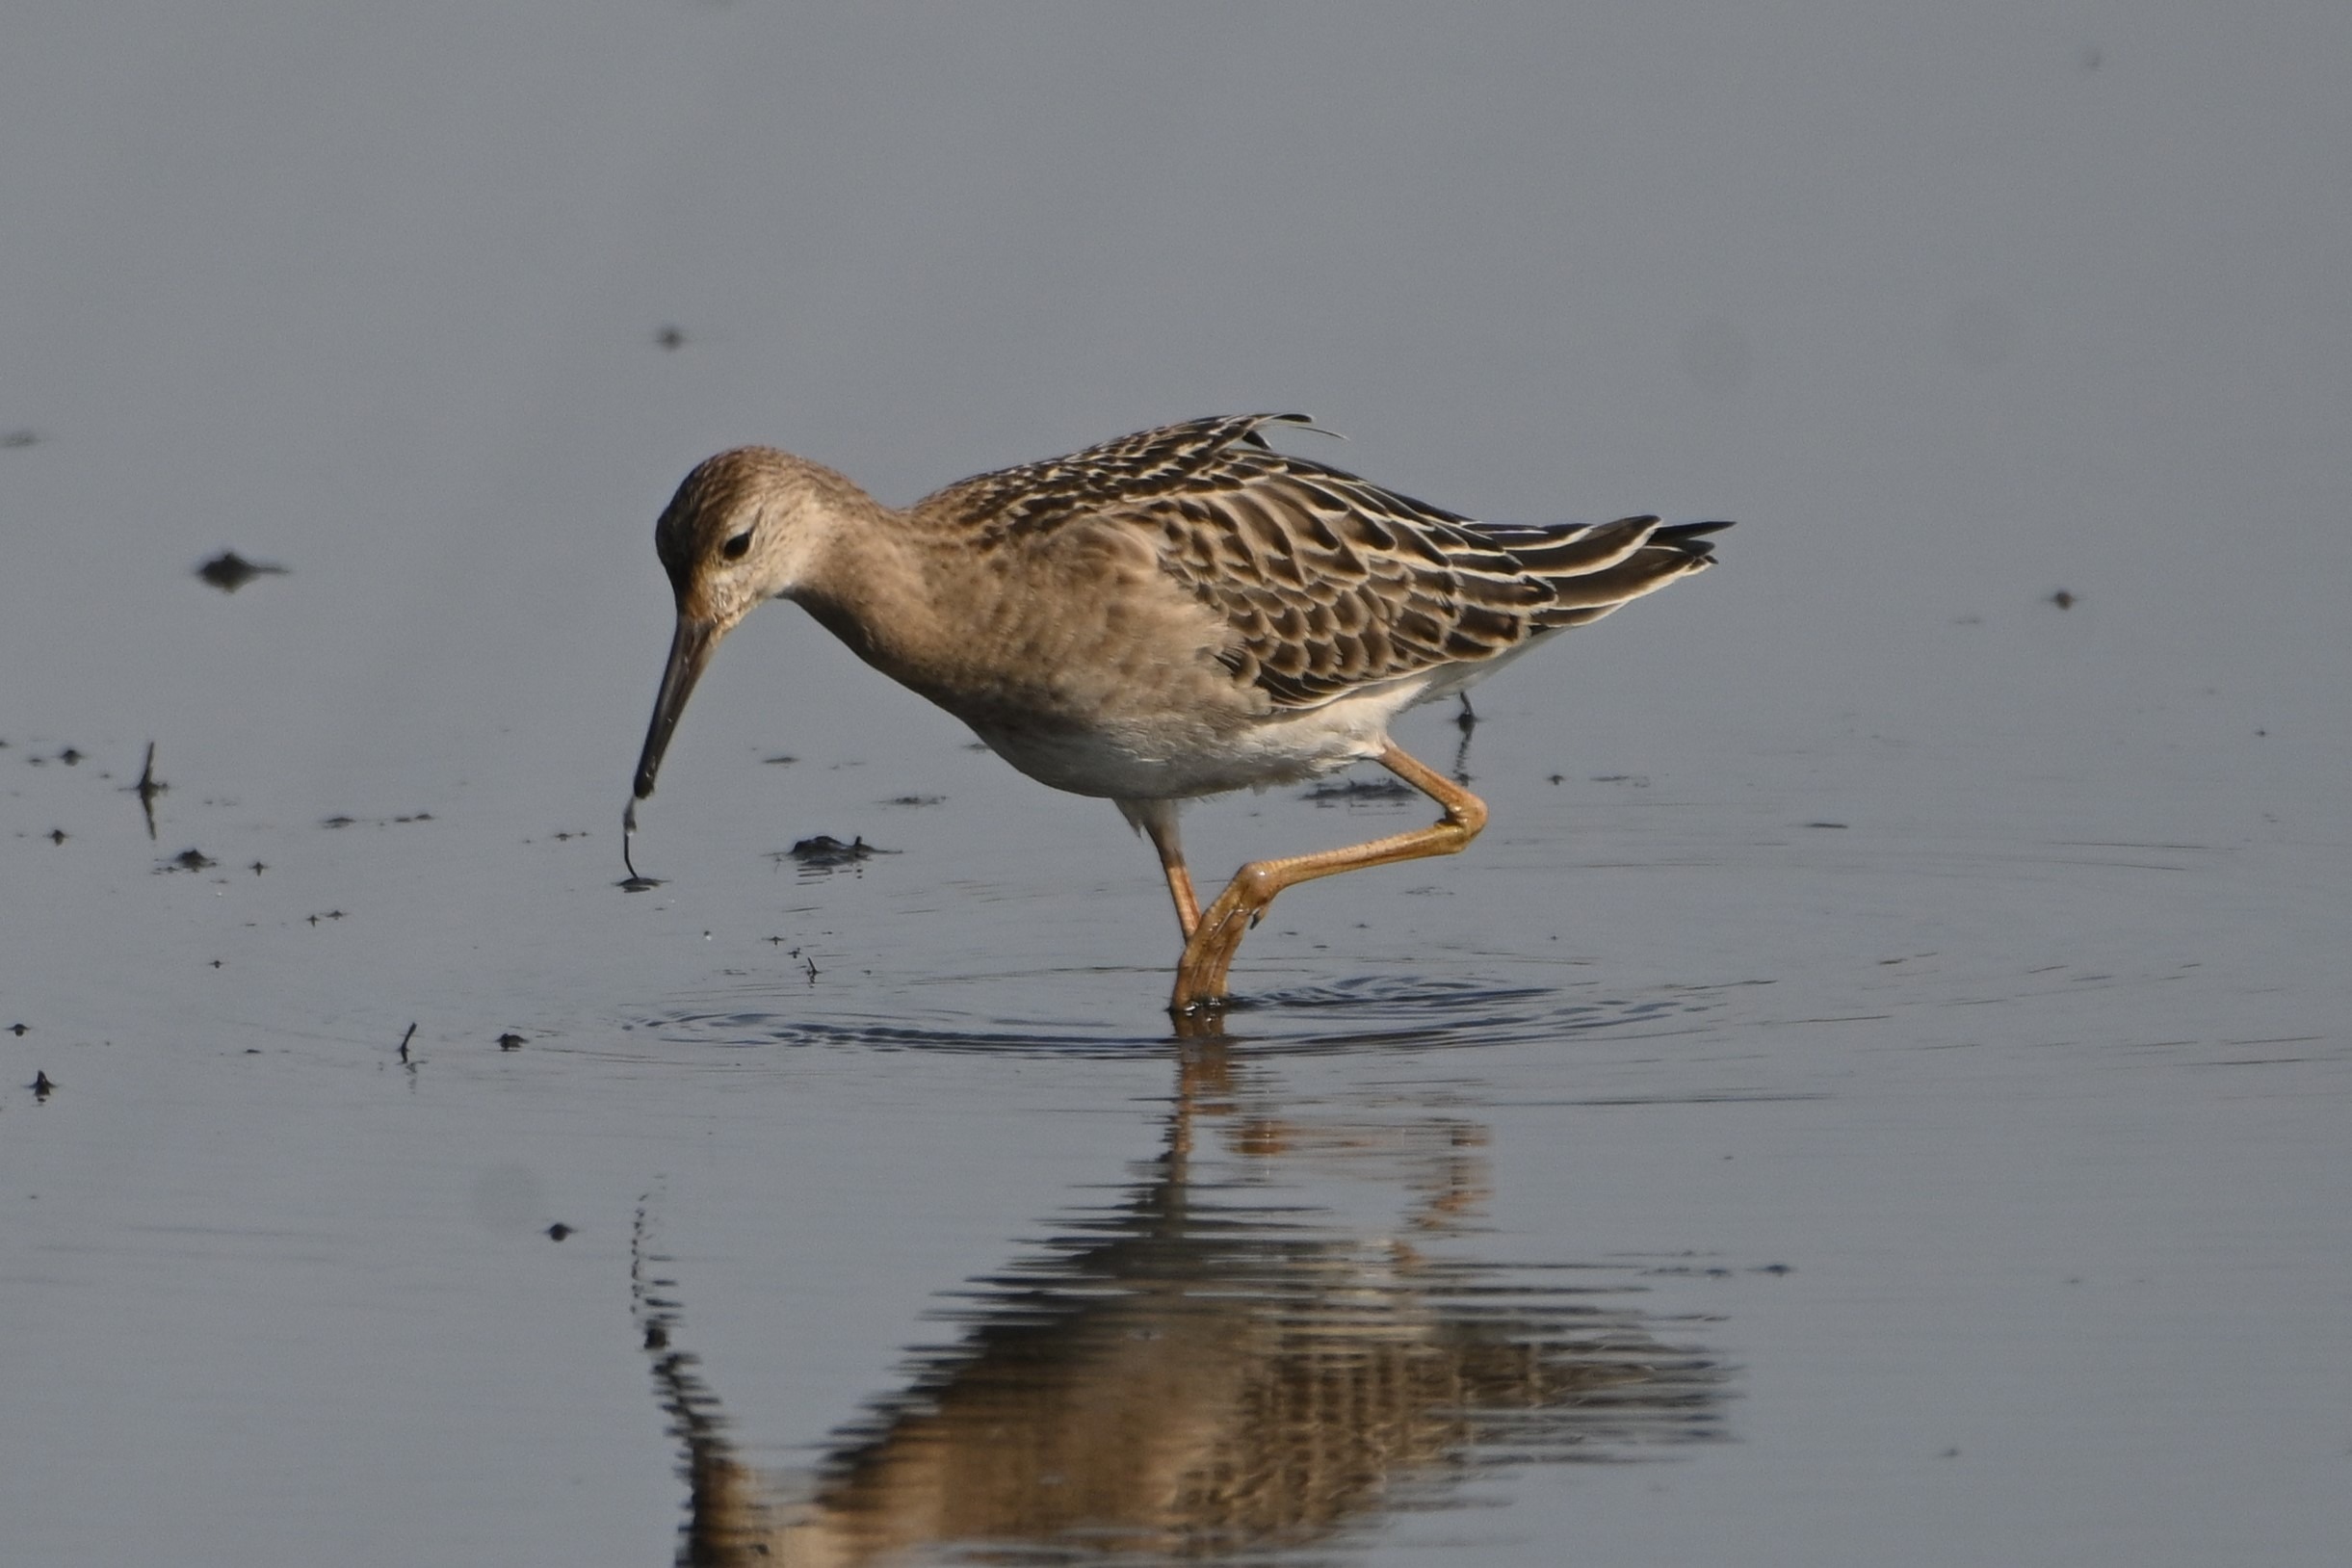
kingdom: Animalia
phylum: Chordata
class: Aves
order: Charadriiformes
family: Scolopacidae
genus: Calidris
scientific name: Calidris pugnax
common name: Brushane
